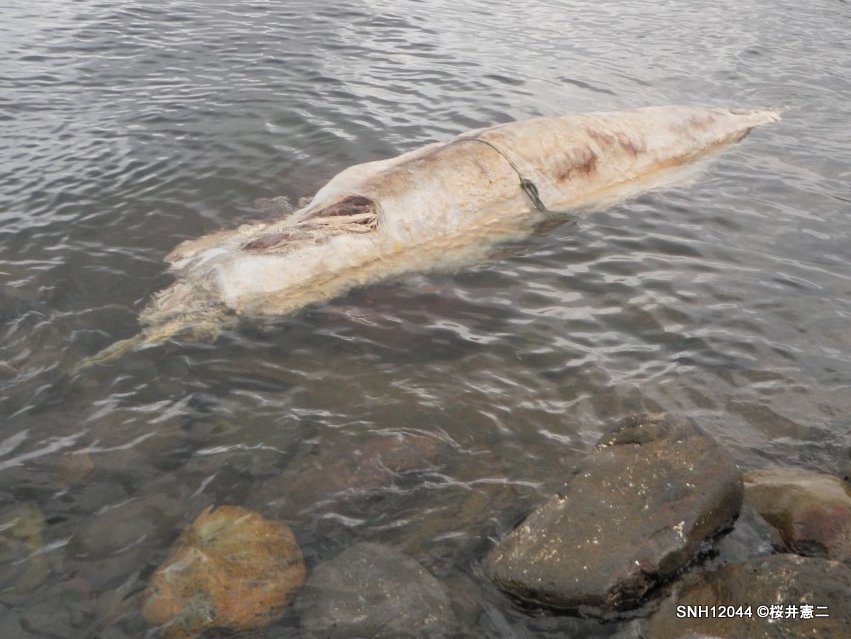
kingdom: Animalia
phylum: Chordata
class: Mammalia
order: Cetacea
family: Hyperoodontidae
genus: Berardius
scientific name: Berardius minimus
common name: Sato's beaked whale
